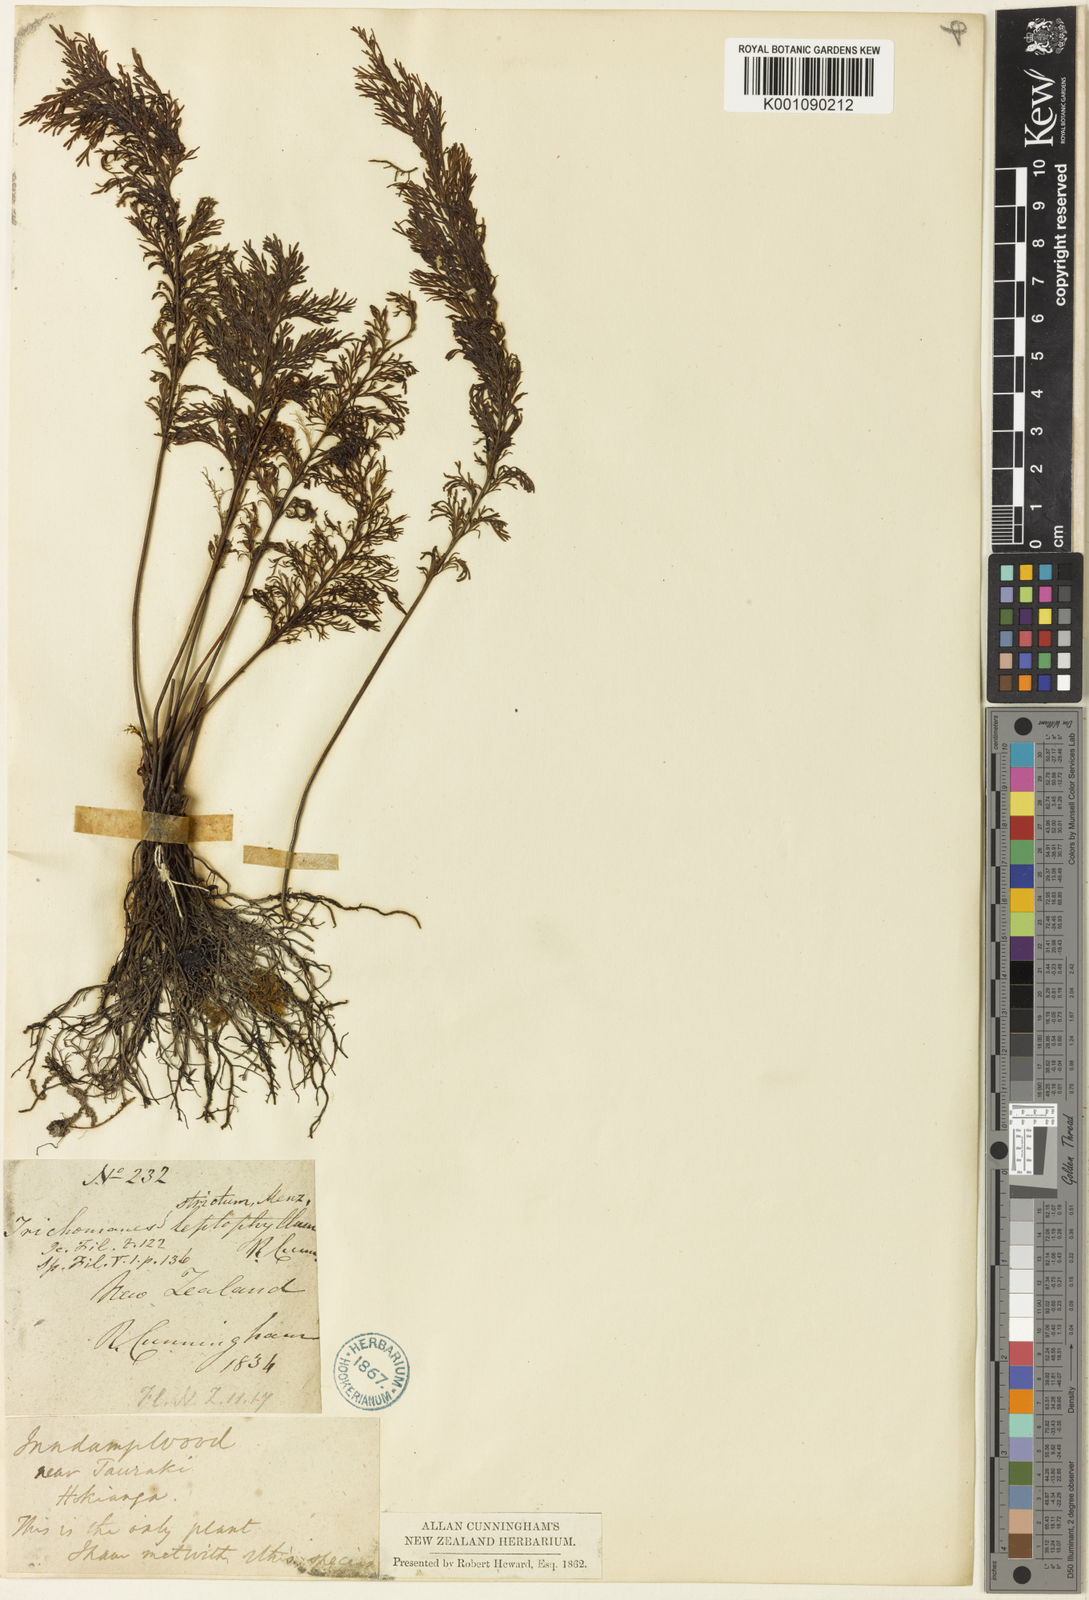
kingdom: Plantae
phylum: Tracheophyta
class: Polypodiopsida
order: Hymenophyllales
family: Hymenophyllaceae
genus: Abrodictyum
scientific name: Abrodictyum strictum
